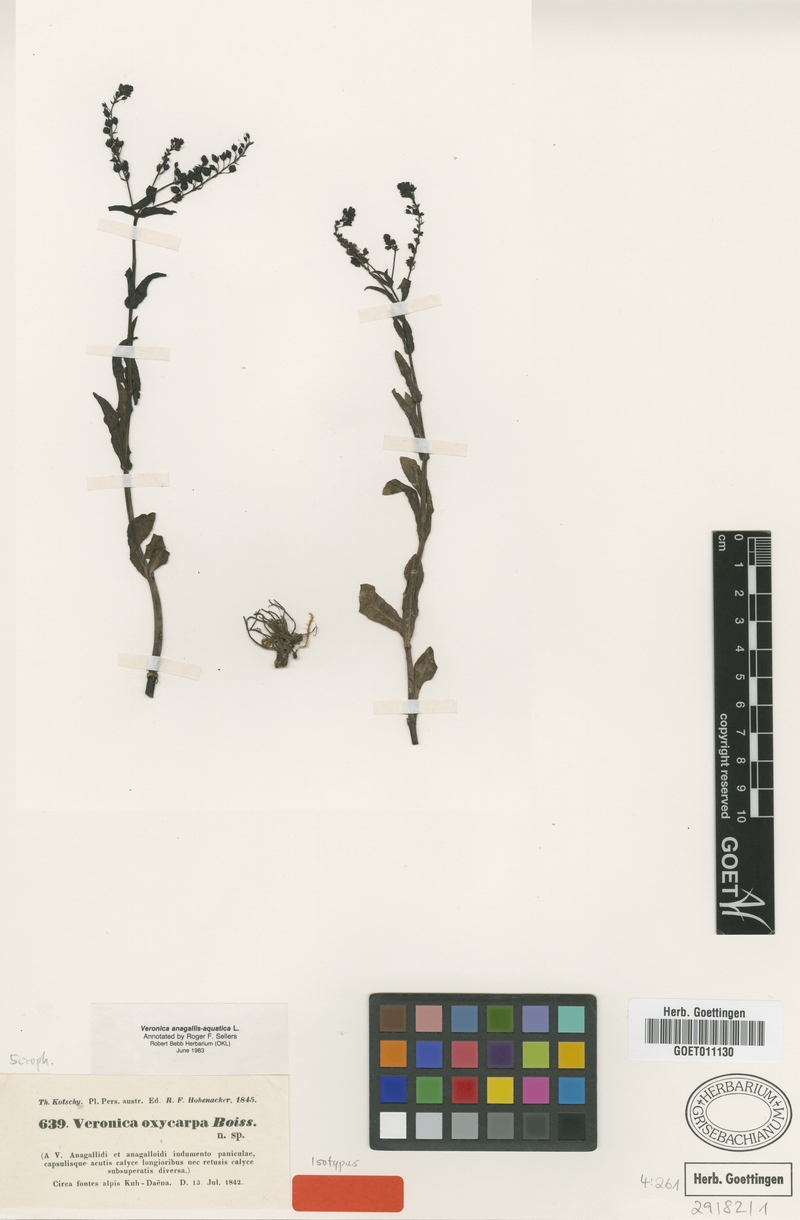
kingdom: Plantae
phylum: Tracheophyta
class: Magnoliopsida
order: Lamiales
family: Plantaginaceae
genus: Veronica
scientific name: Veronica oxycarpa
